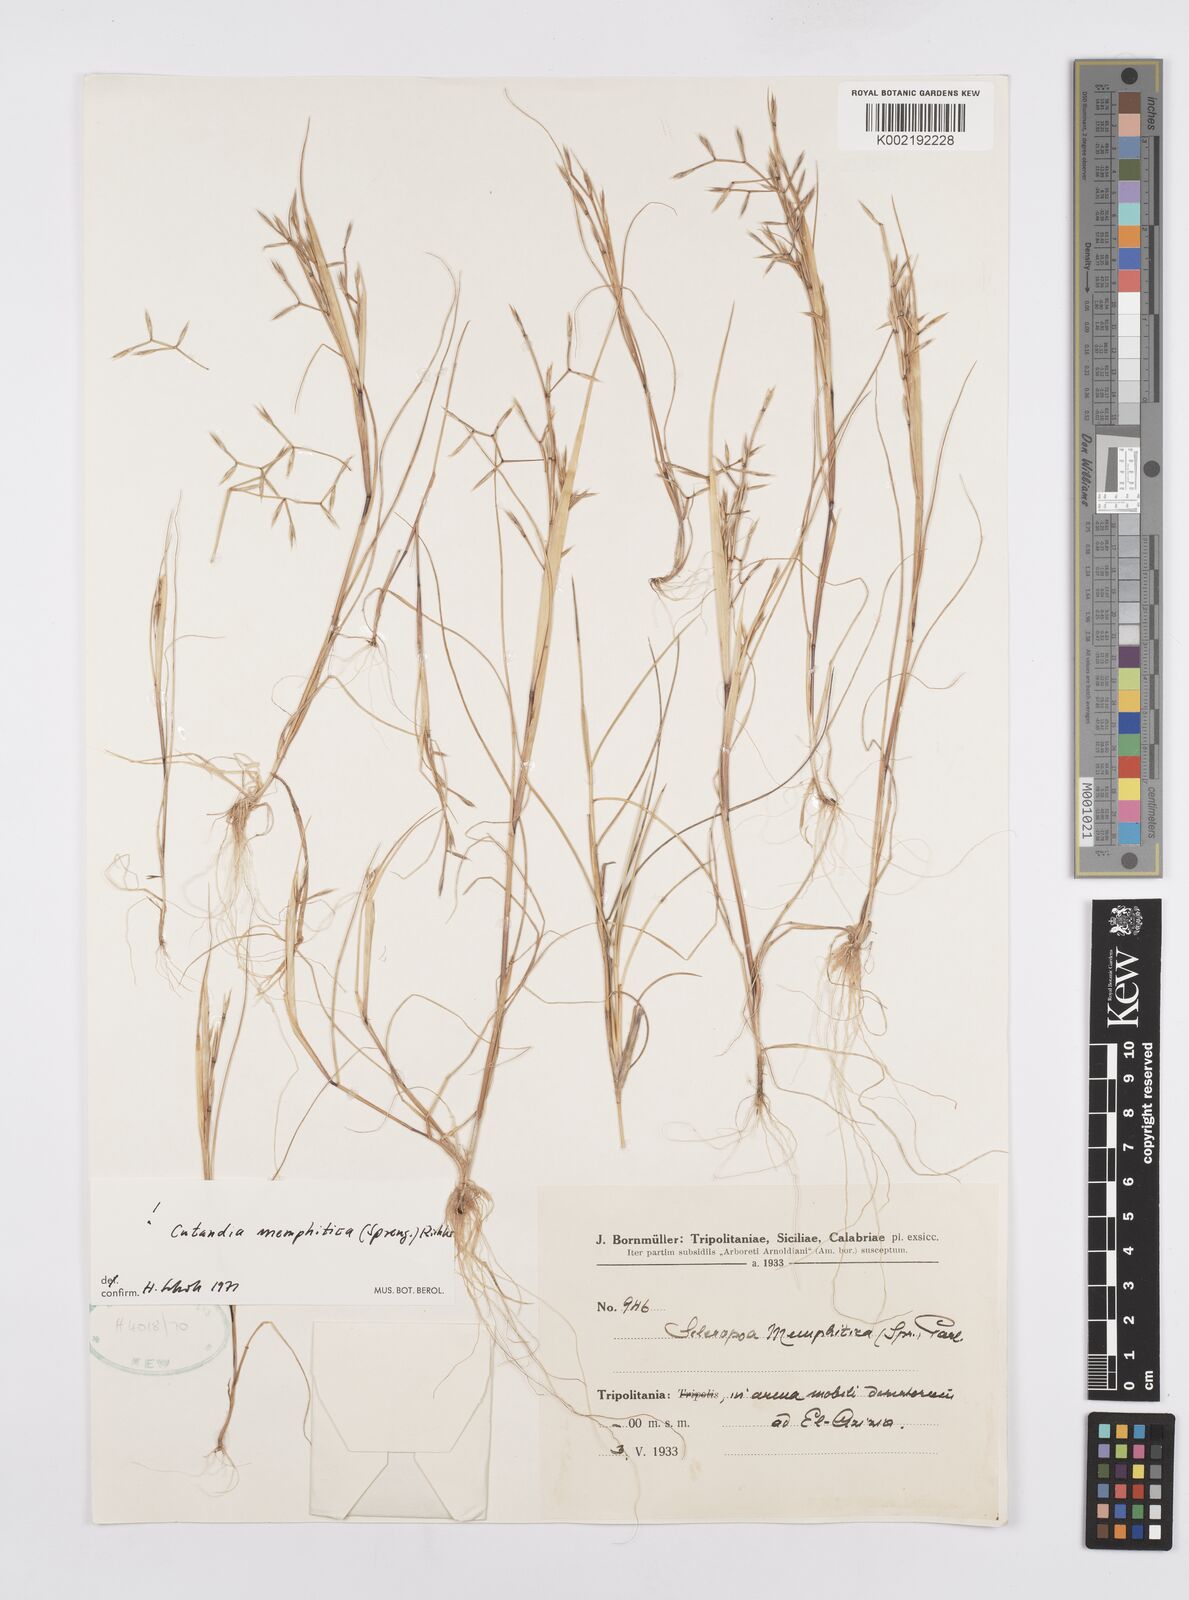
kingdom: Plantae
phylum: Tracheophyta
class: Liliopsida
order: Poales
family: Poaceae
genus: Cutandia
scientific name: Cutandia memphitica
